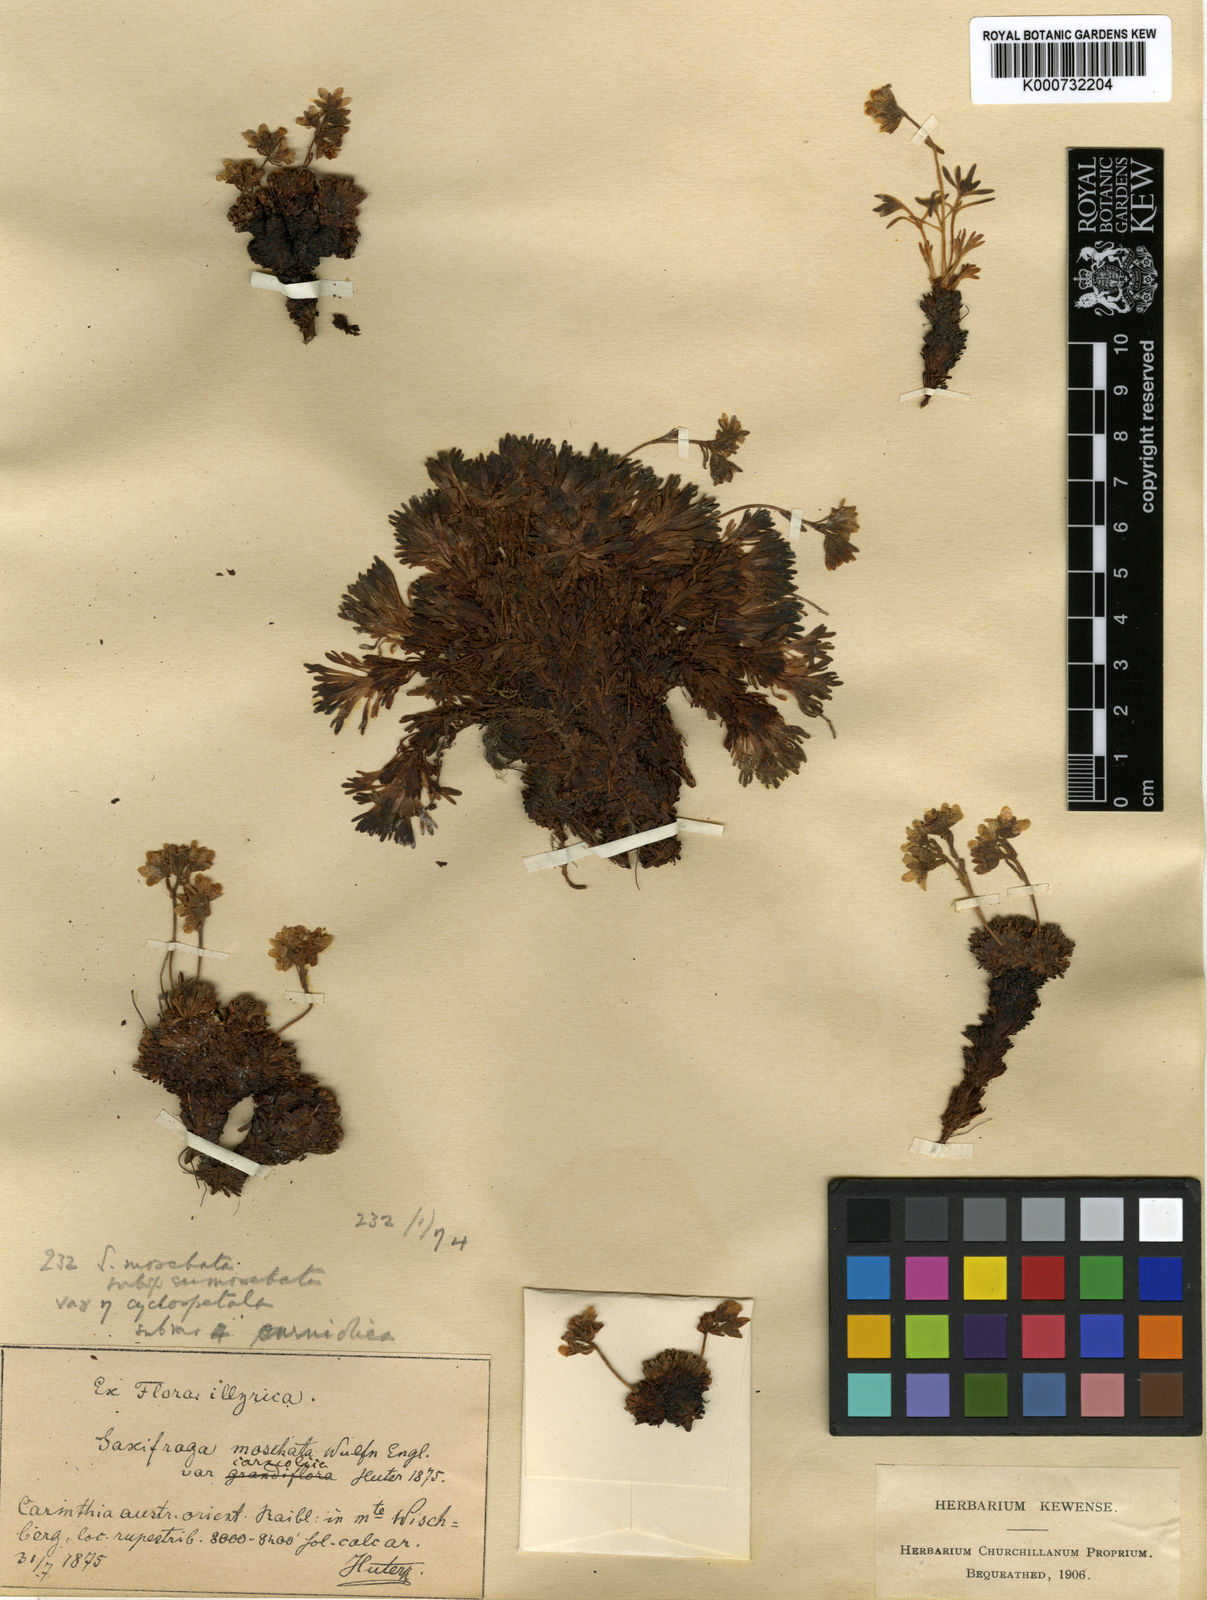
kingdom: Plantae
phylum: Tracheophyta
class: Magnoliopsida
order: Saxifragales
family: Saxifragaceae
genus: Saxifraga
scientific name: Saxifraga moschata
